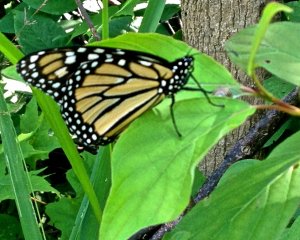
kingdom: Animalia
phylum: Arthropoda
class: Insecta
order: Lepidoptera
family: Nymphalidae
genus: Danaus
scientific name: Danaus plexippus
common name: Monarch
